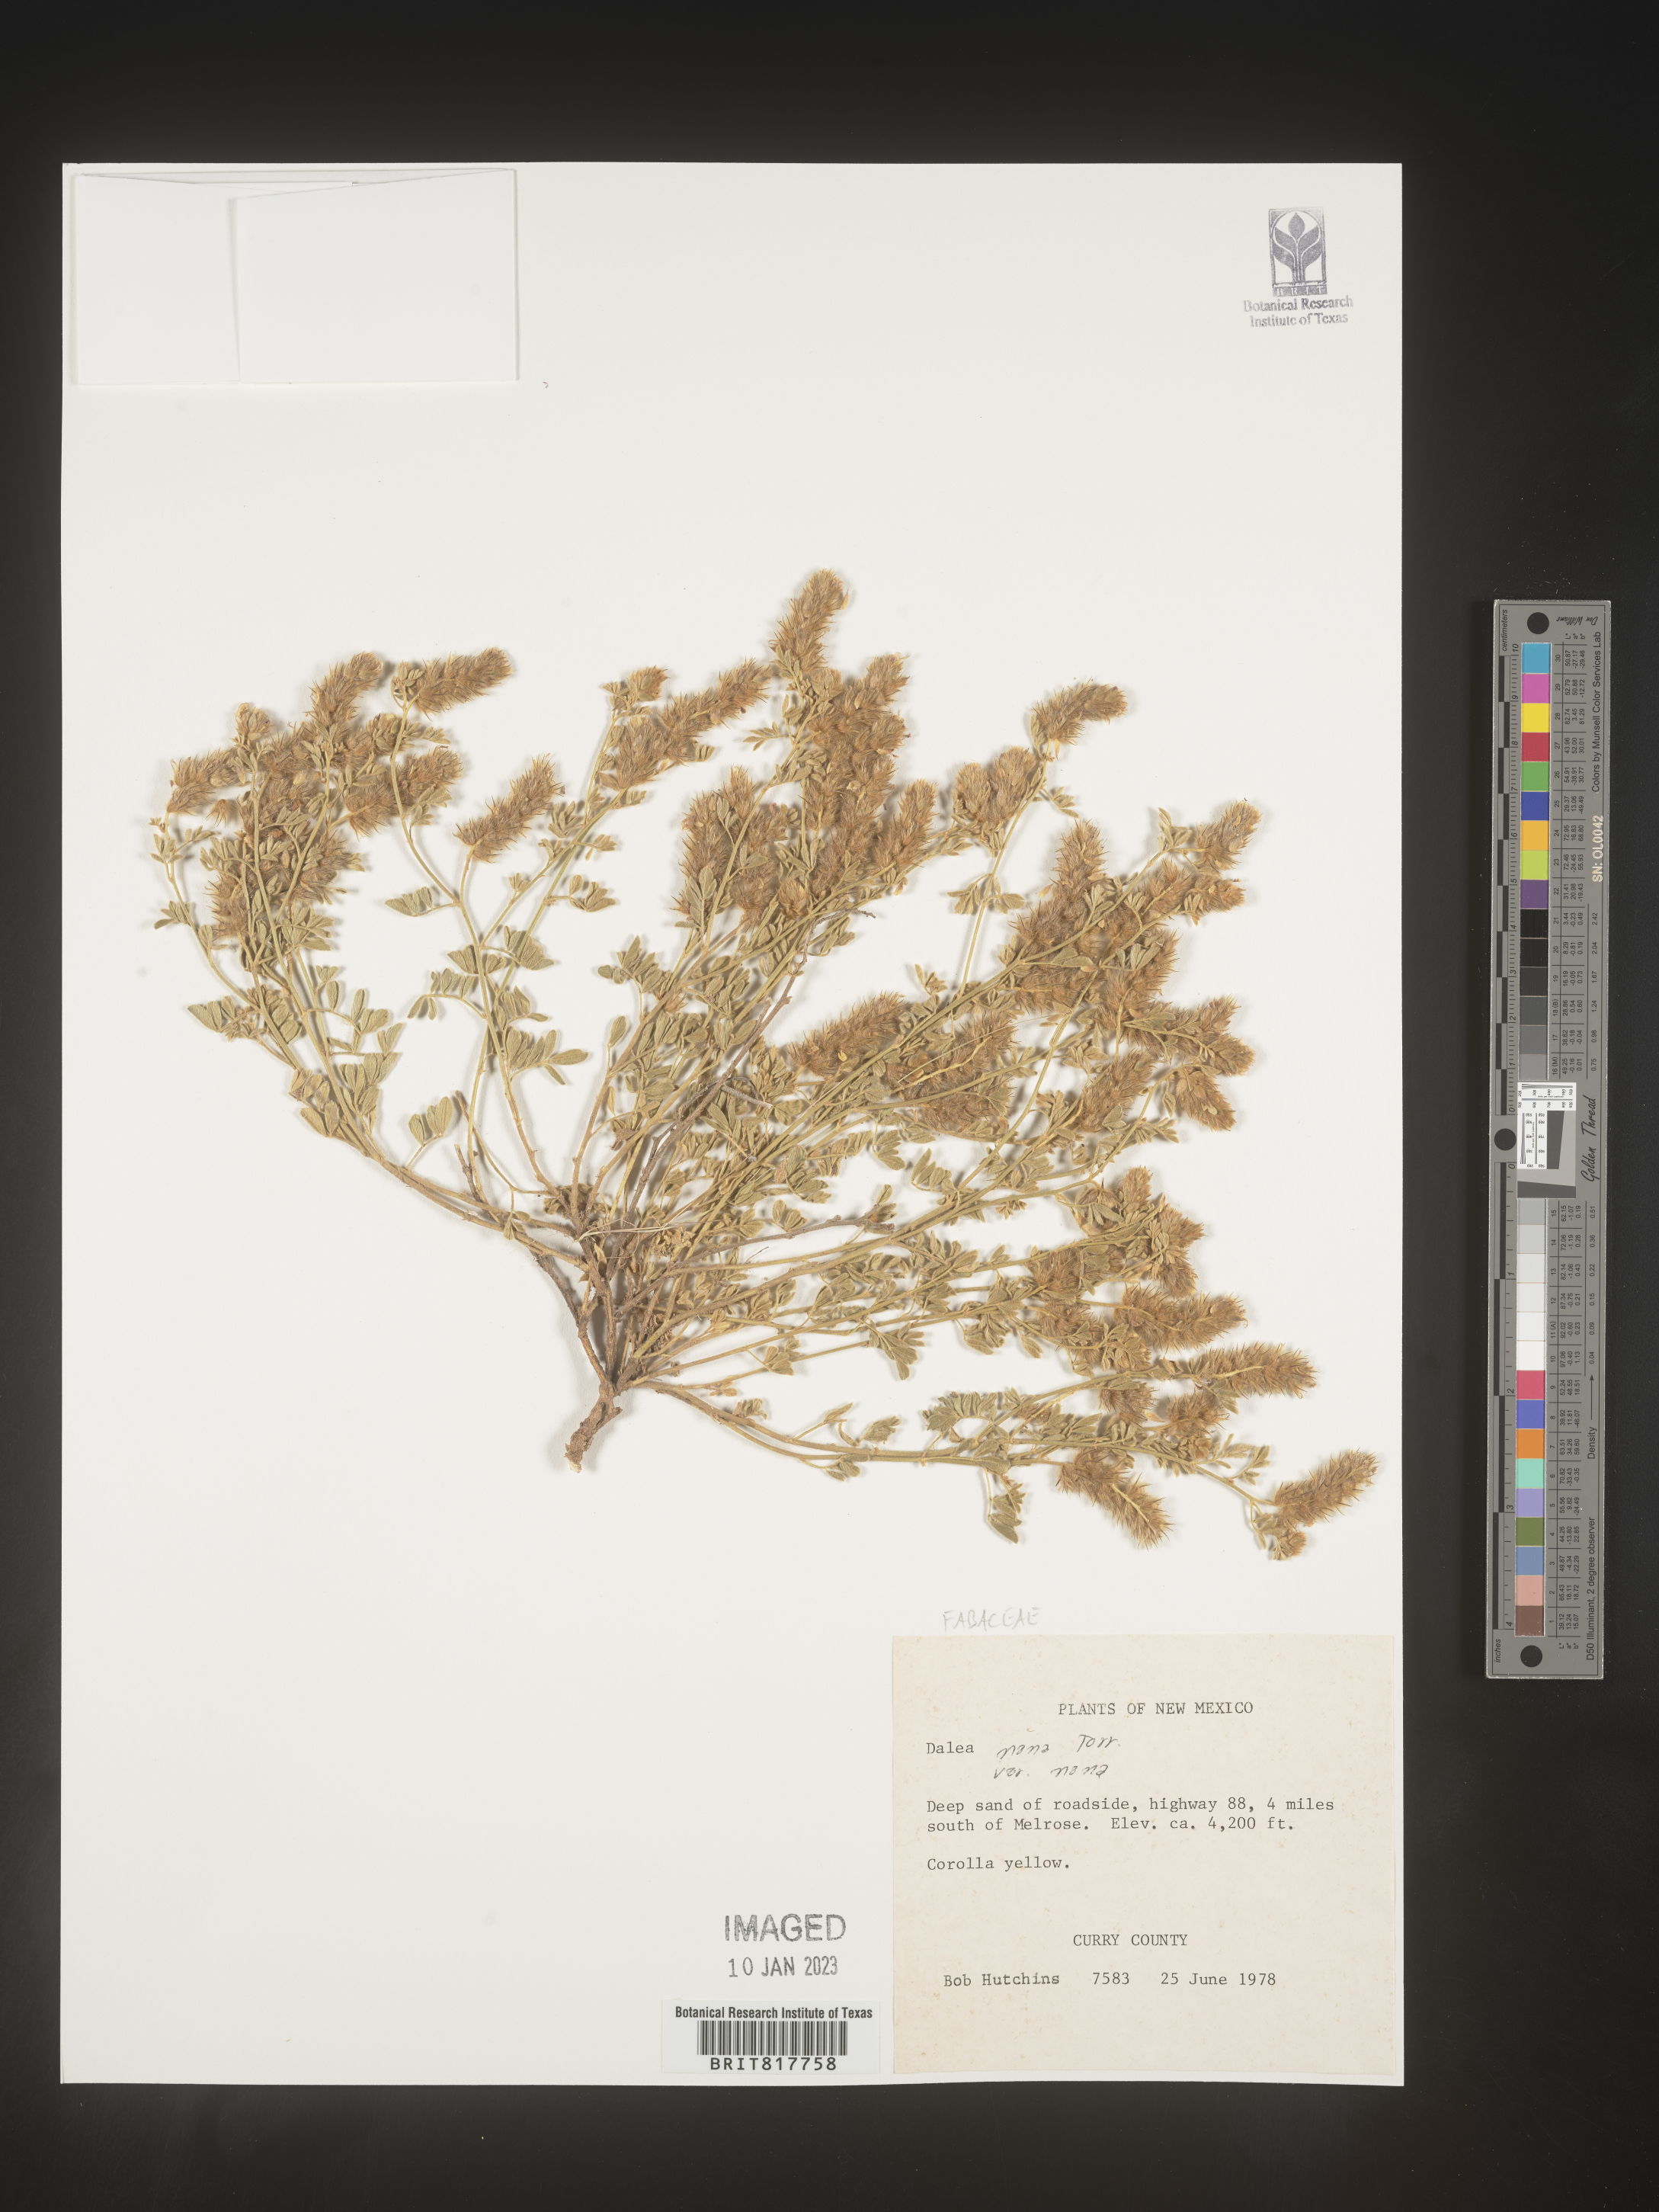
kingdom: Plantae
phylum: Tracheophyta
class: Magnoliopsida
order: Fabales
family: Fabaceae
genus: Dalea
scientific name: Dalea nana
